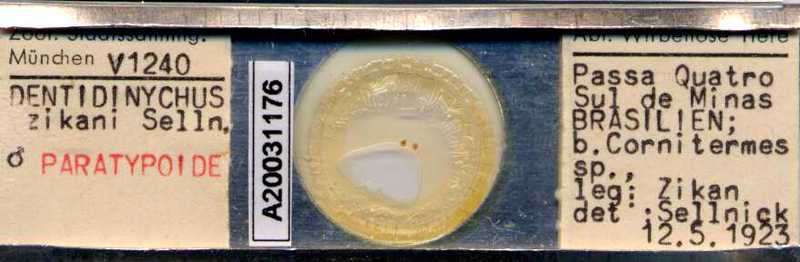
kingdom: Animalia
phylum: Arthropoda
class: Arachnida
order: Mesostigmata
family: Trematuridae
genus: Trichouropoda
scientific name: Trichouropoda
